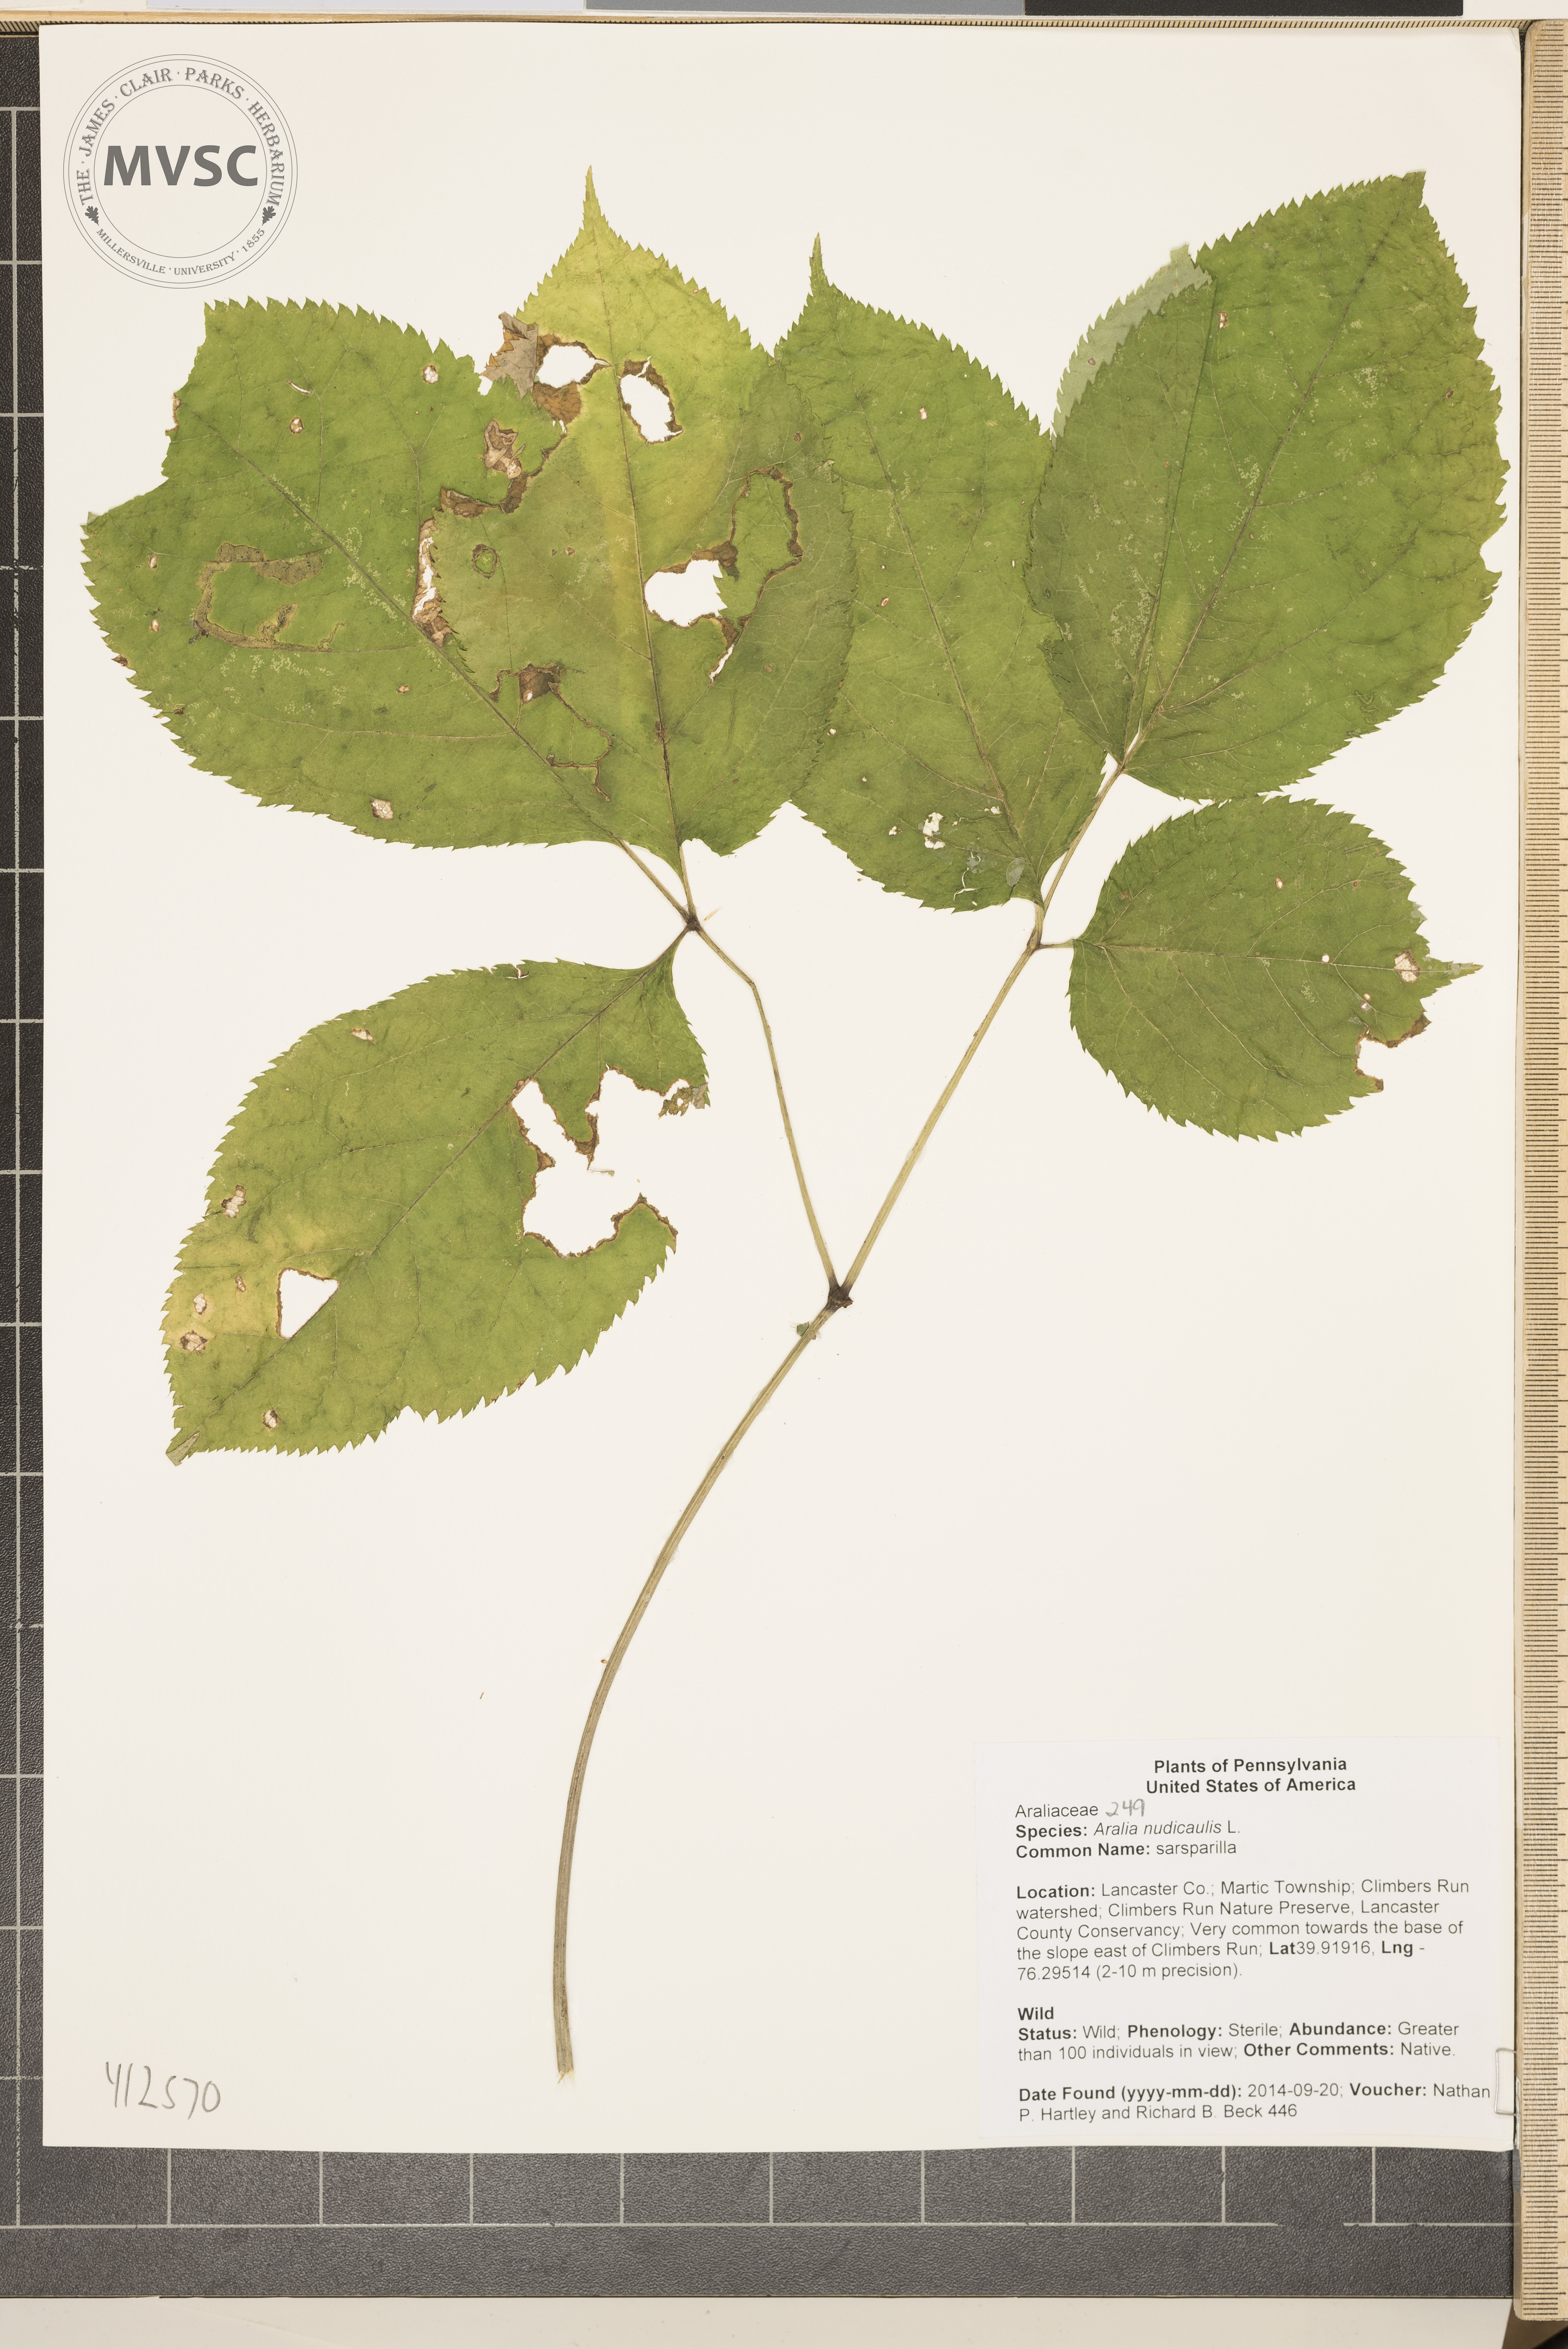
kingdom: Plantae
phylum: Tracheophyta
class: Magnoliopsida
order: Apiales
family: Araliaceae
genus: Aralia
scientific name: Aralia nudicaulis
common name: sarsaparilla
